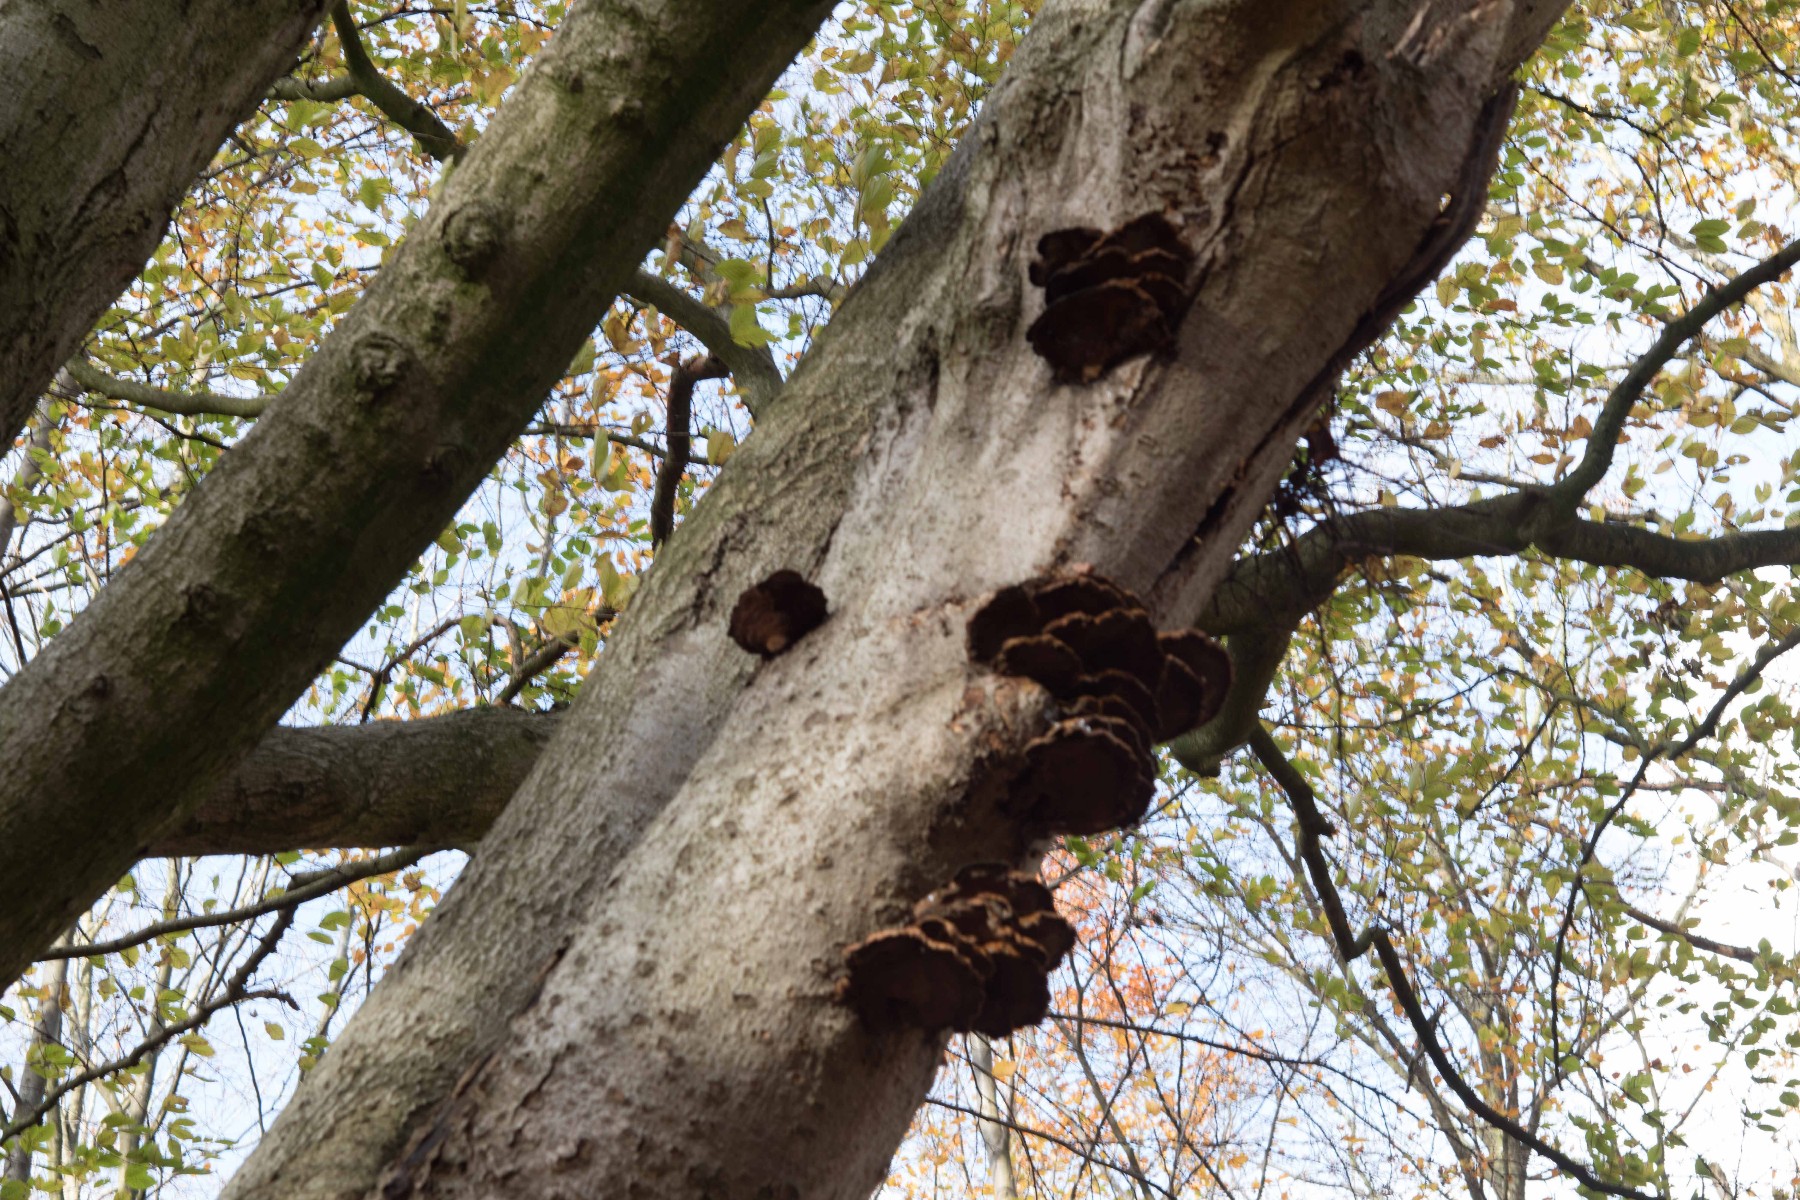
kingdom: Fungi
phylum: Basidiomycota
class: Agaricomycetes
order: Hymenochaetales
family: Hymenochaetaceae
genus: Inonotus
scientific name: Inonotus cuticularis
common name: kroghåret spejlporesvamp
